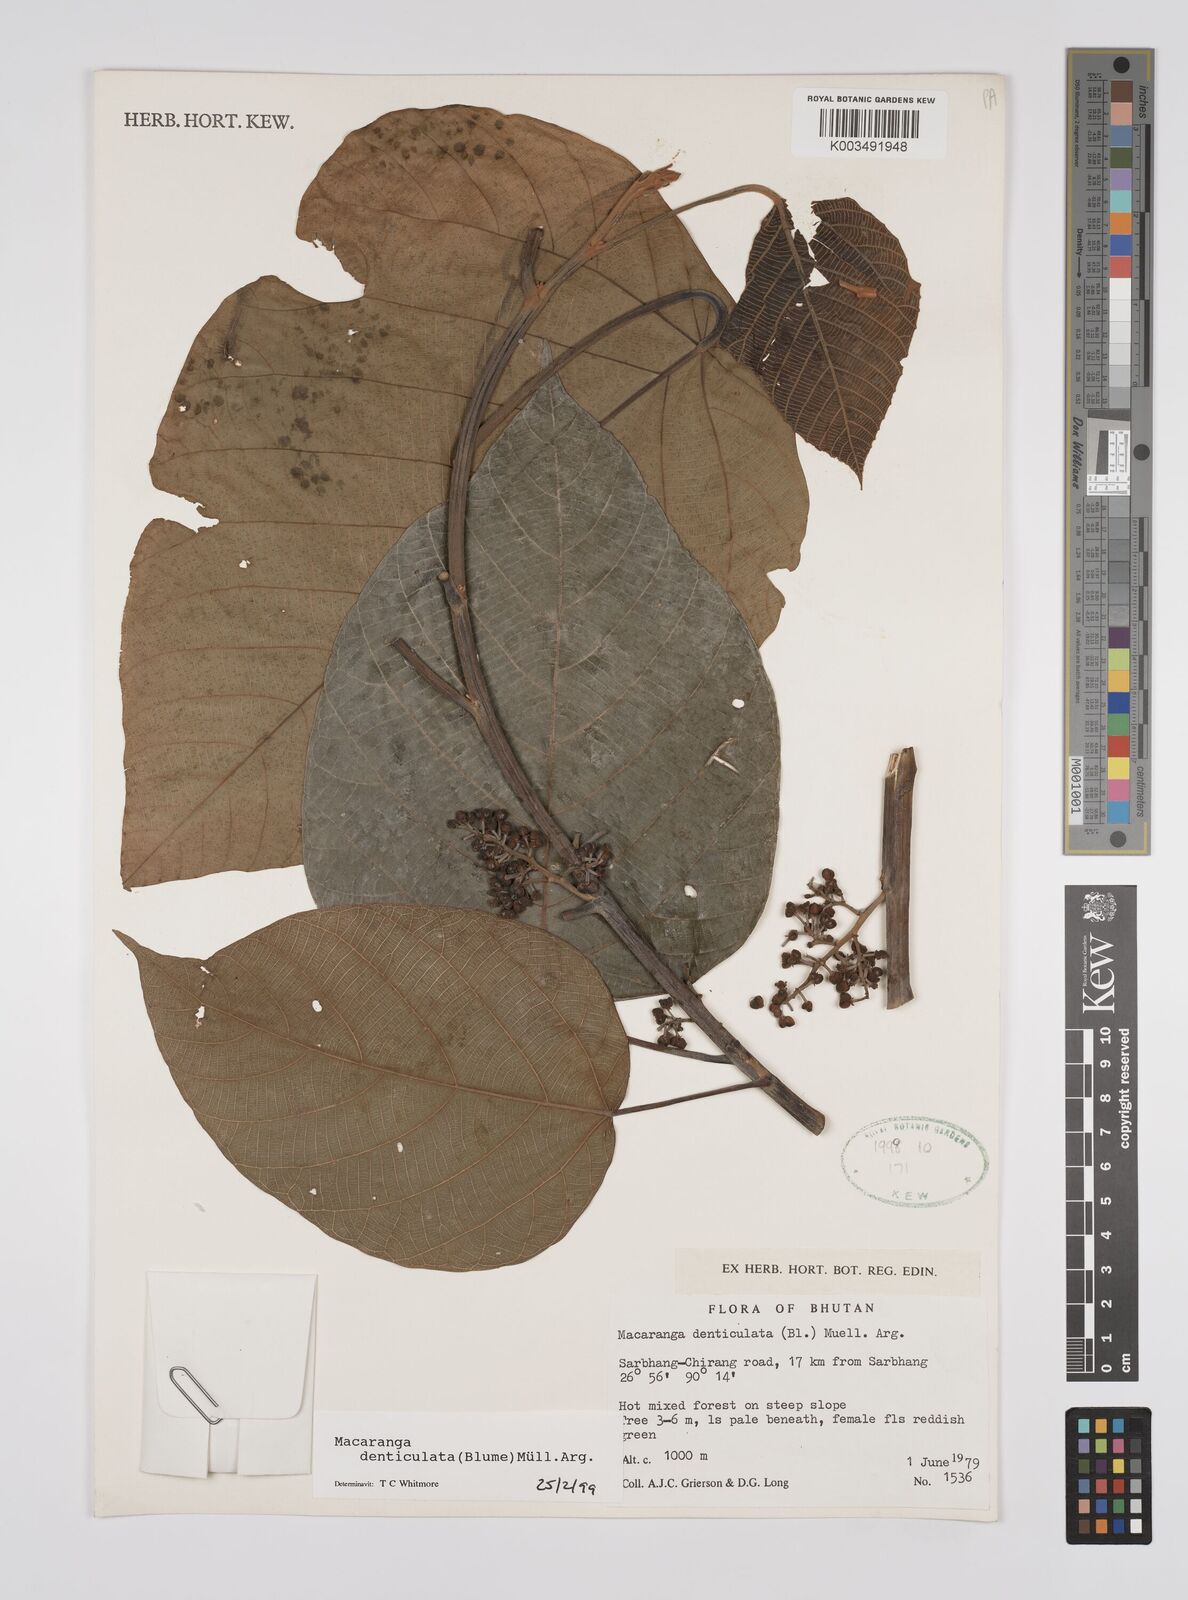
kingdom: Plantae
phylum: Tracheophyta
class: Magnoliopsida
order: Malpighiales
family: Euphorbiaceae
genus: Macaranga
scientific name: Macaranga denticulata
